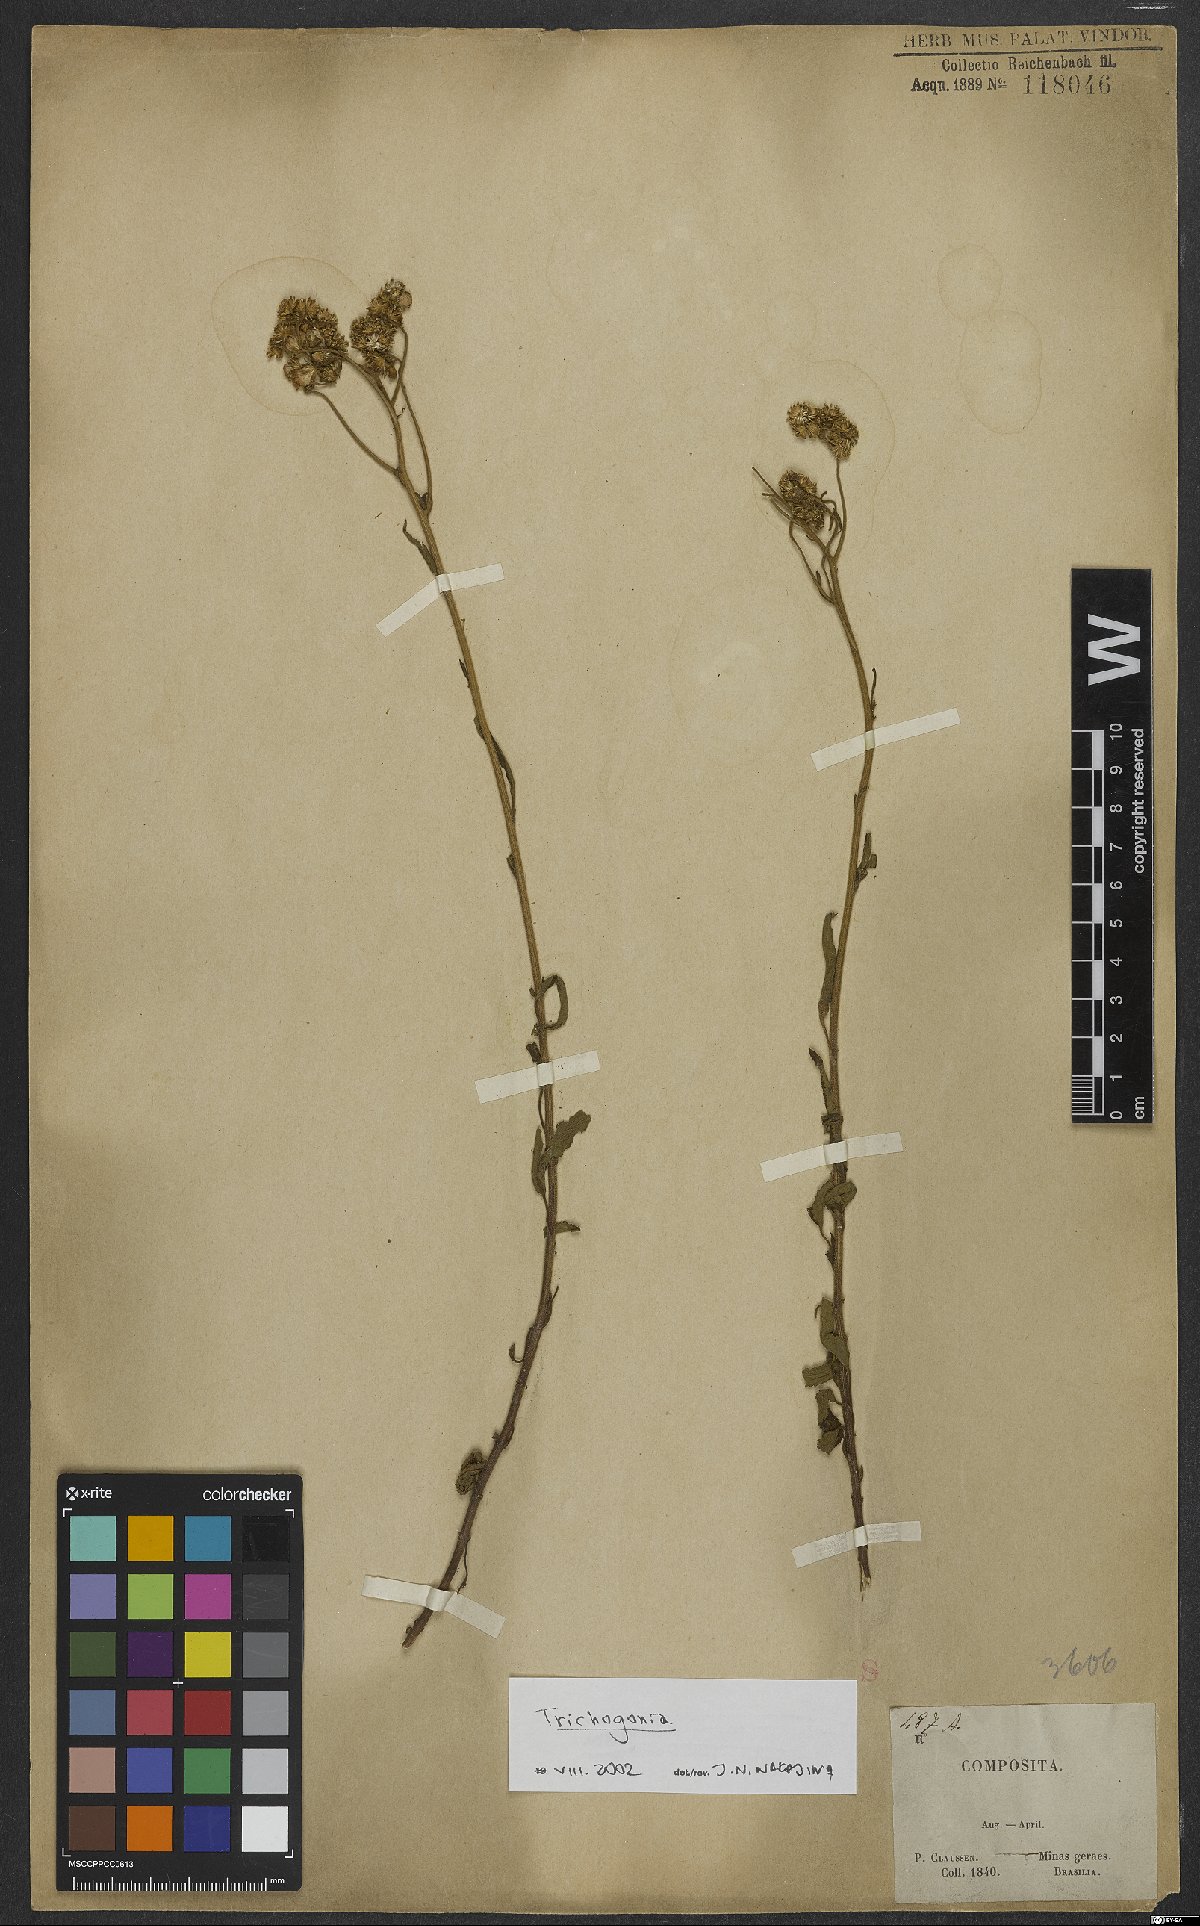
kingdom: Plantae
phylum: Tracheophyta
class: Magnoliopsida
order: Asterales
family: Asteraceae
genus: Trichogonia
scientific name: Trichogonia
